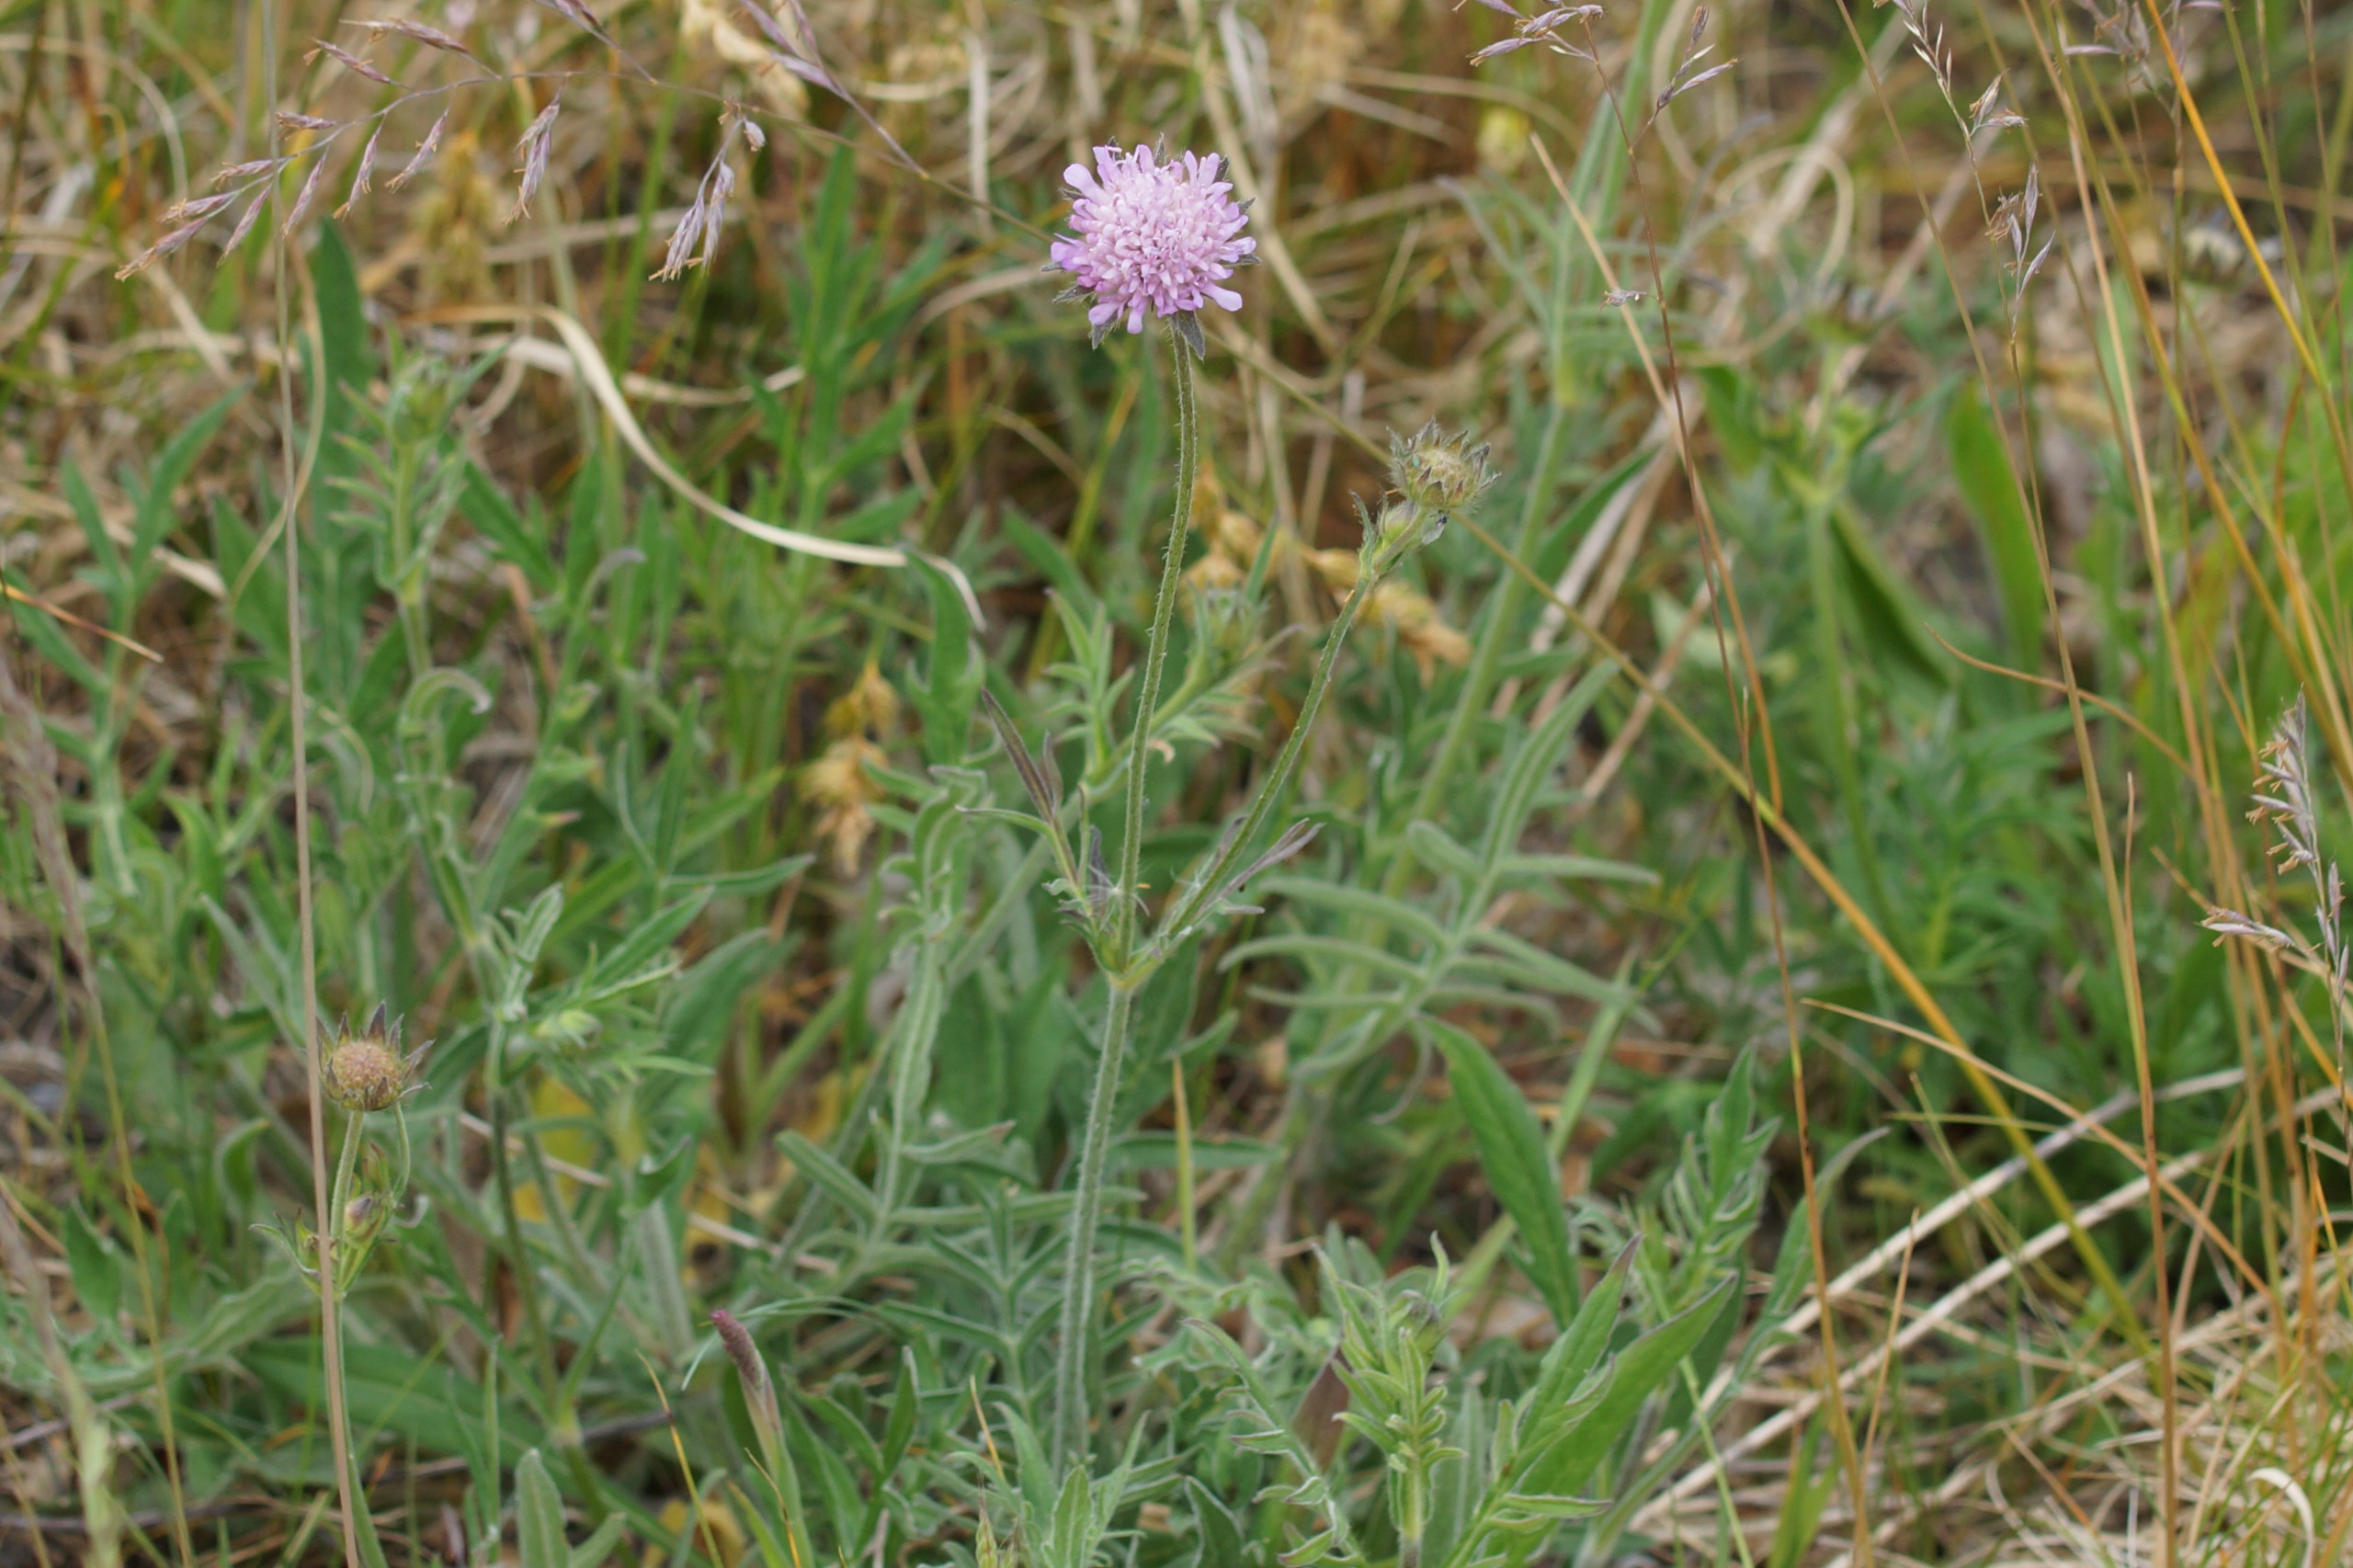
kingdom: Plantae
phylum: Tracheophyta
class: Magnoliopsida
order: Dipsacales
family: Caprifoliaceae
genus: Knautia
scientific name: Knautia arvensis
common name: Blåhat
